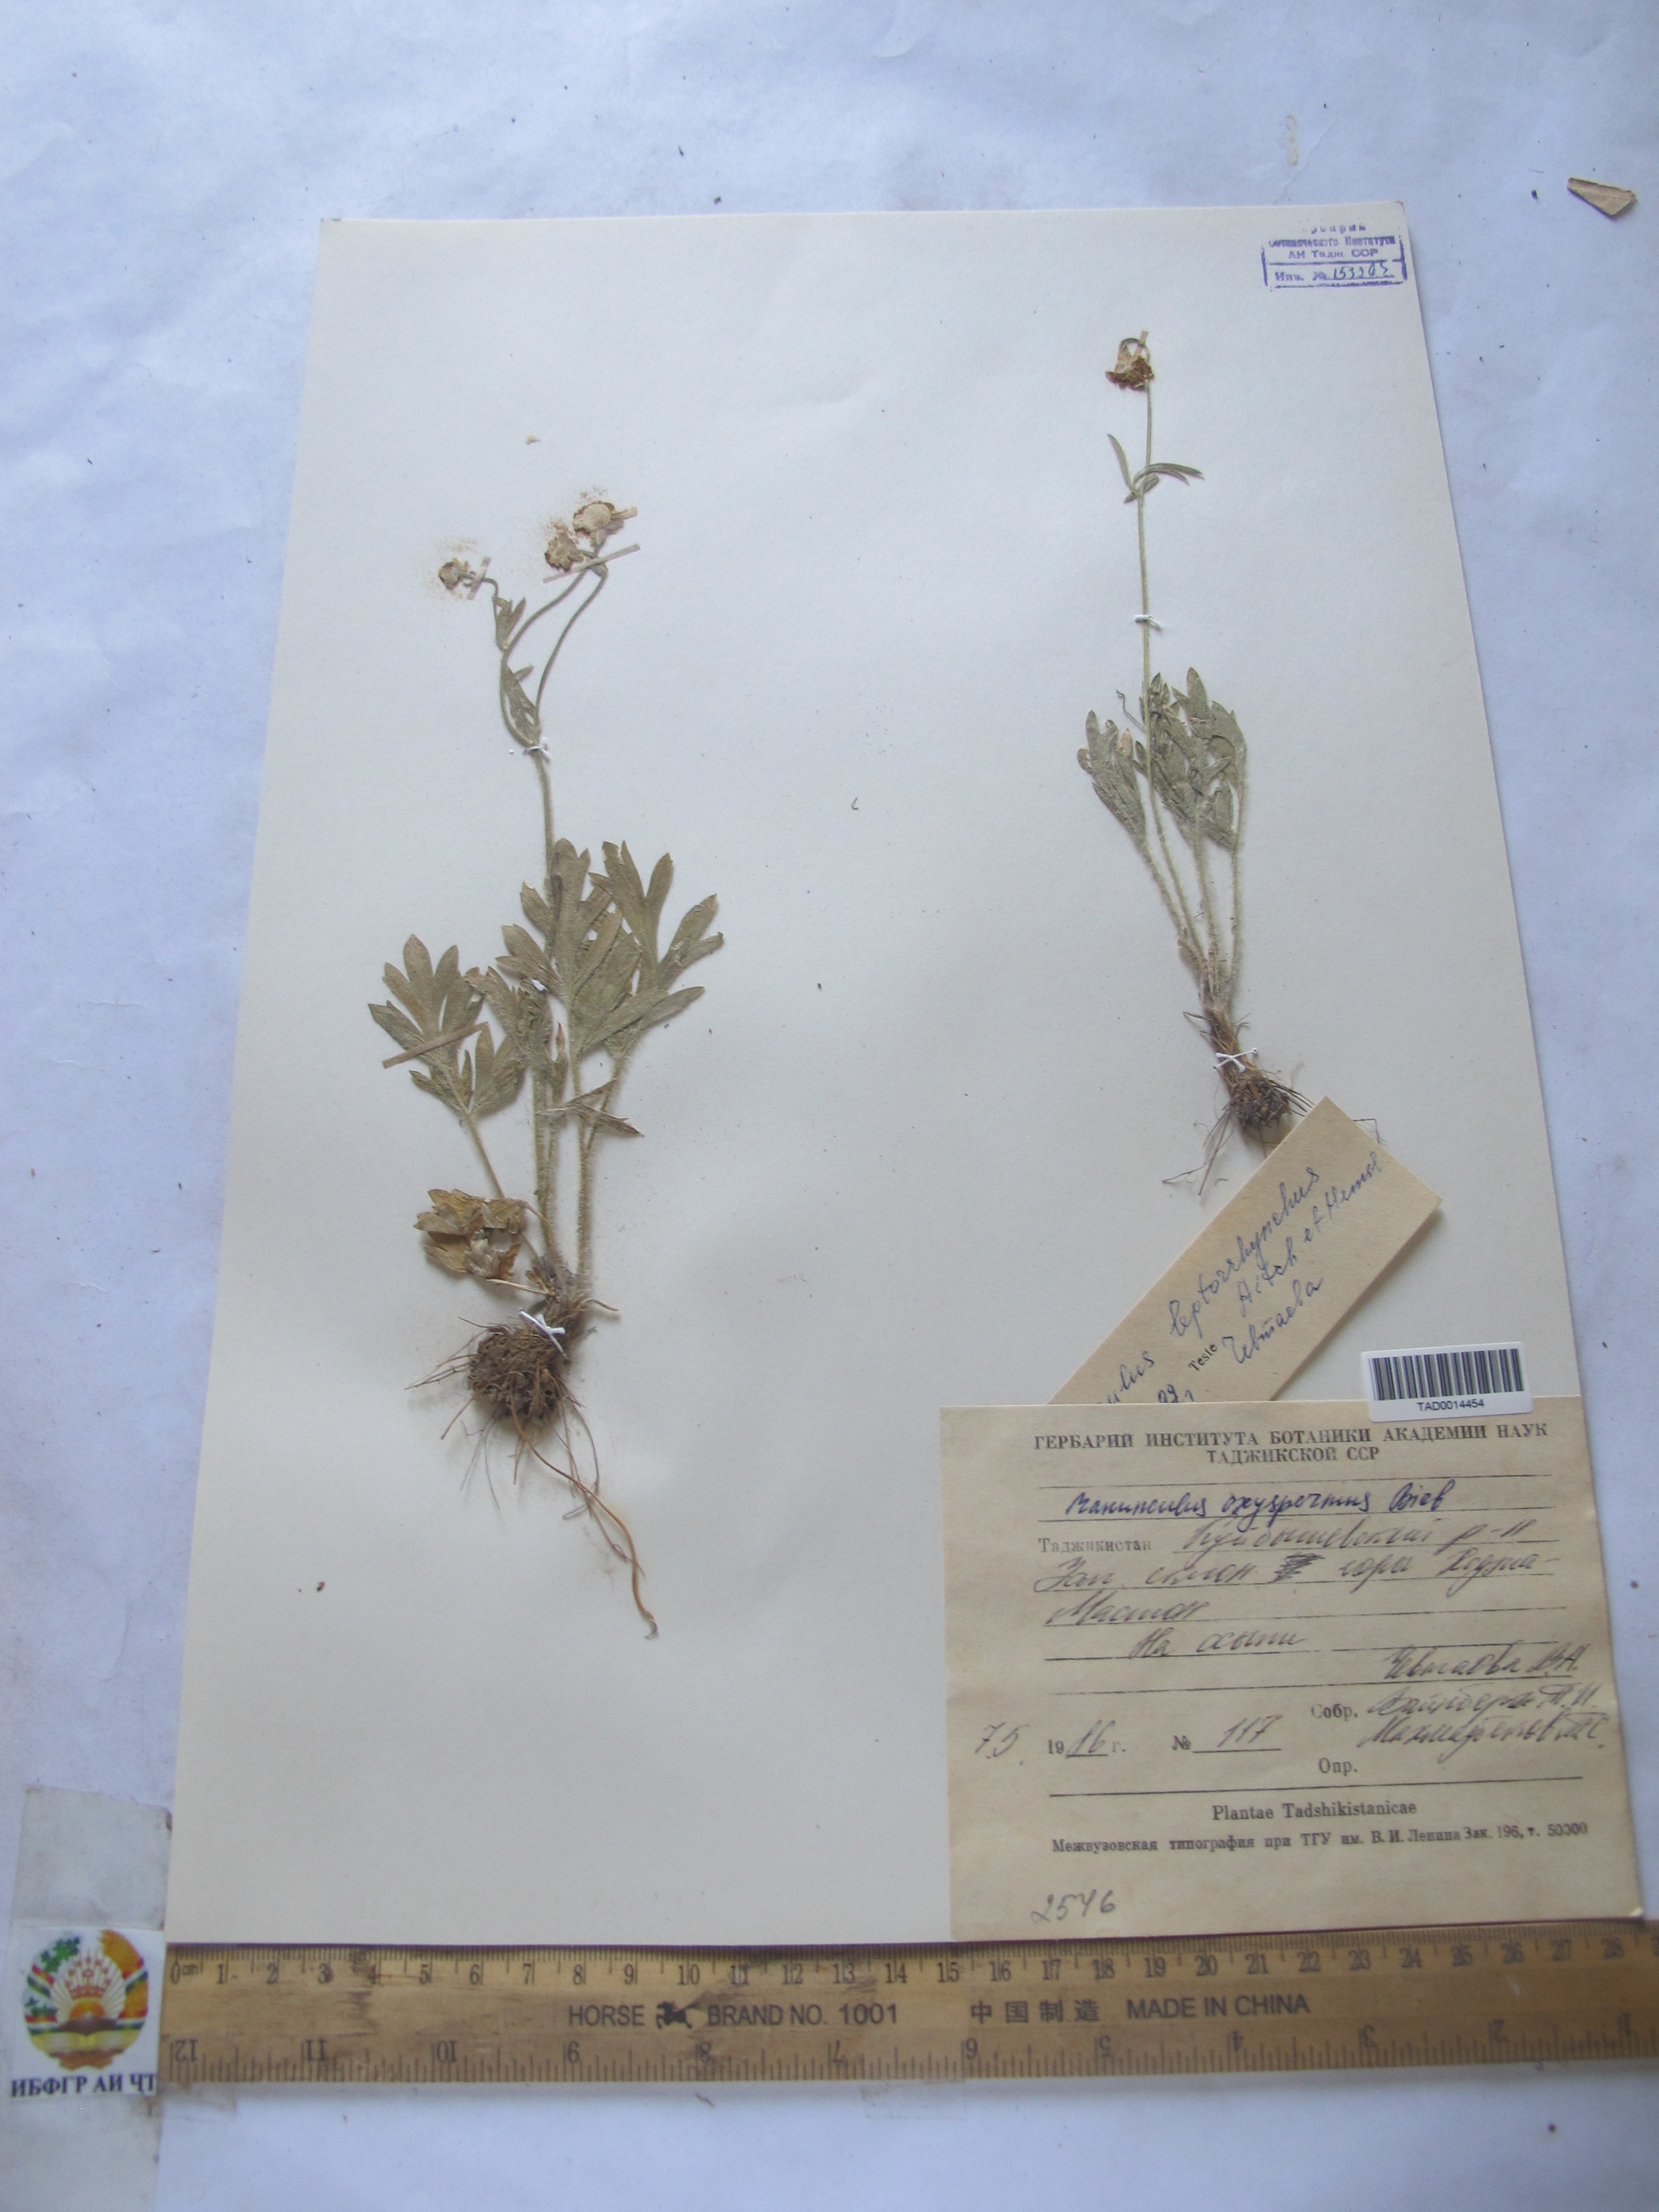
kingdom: Plantae
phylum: Tracheophyta
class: Magnoliopsida
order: Ranunculales
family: Ranunculaceae
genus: Ranunculus
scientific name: Ranunculus oxyspermus
